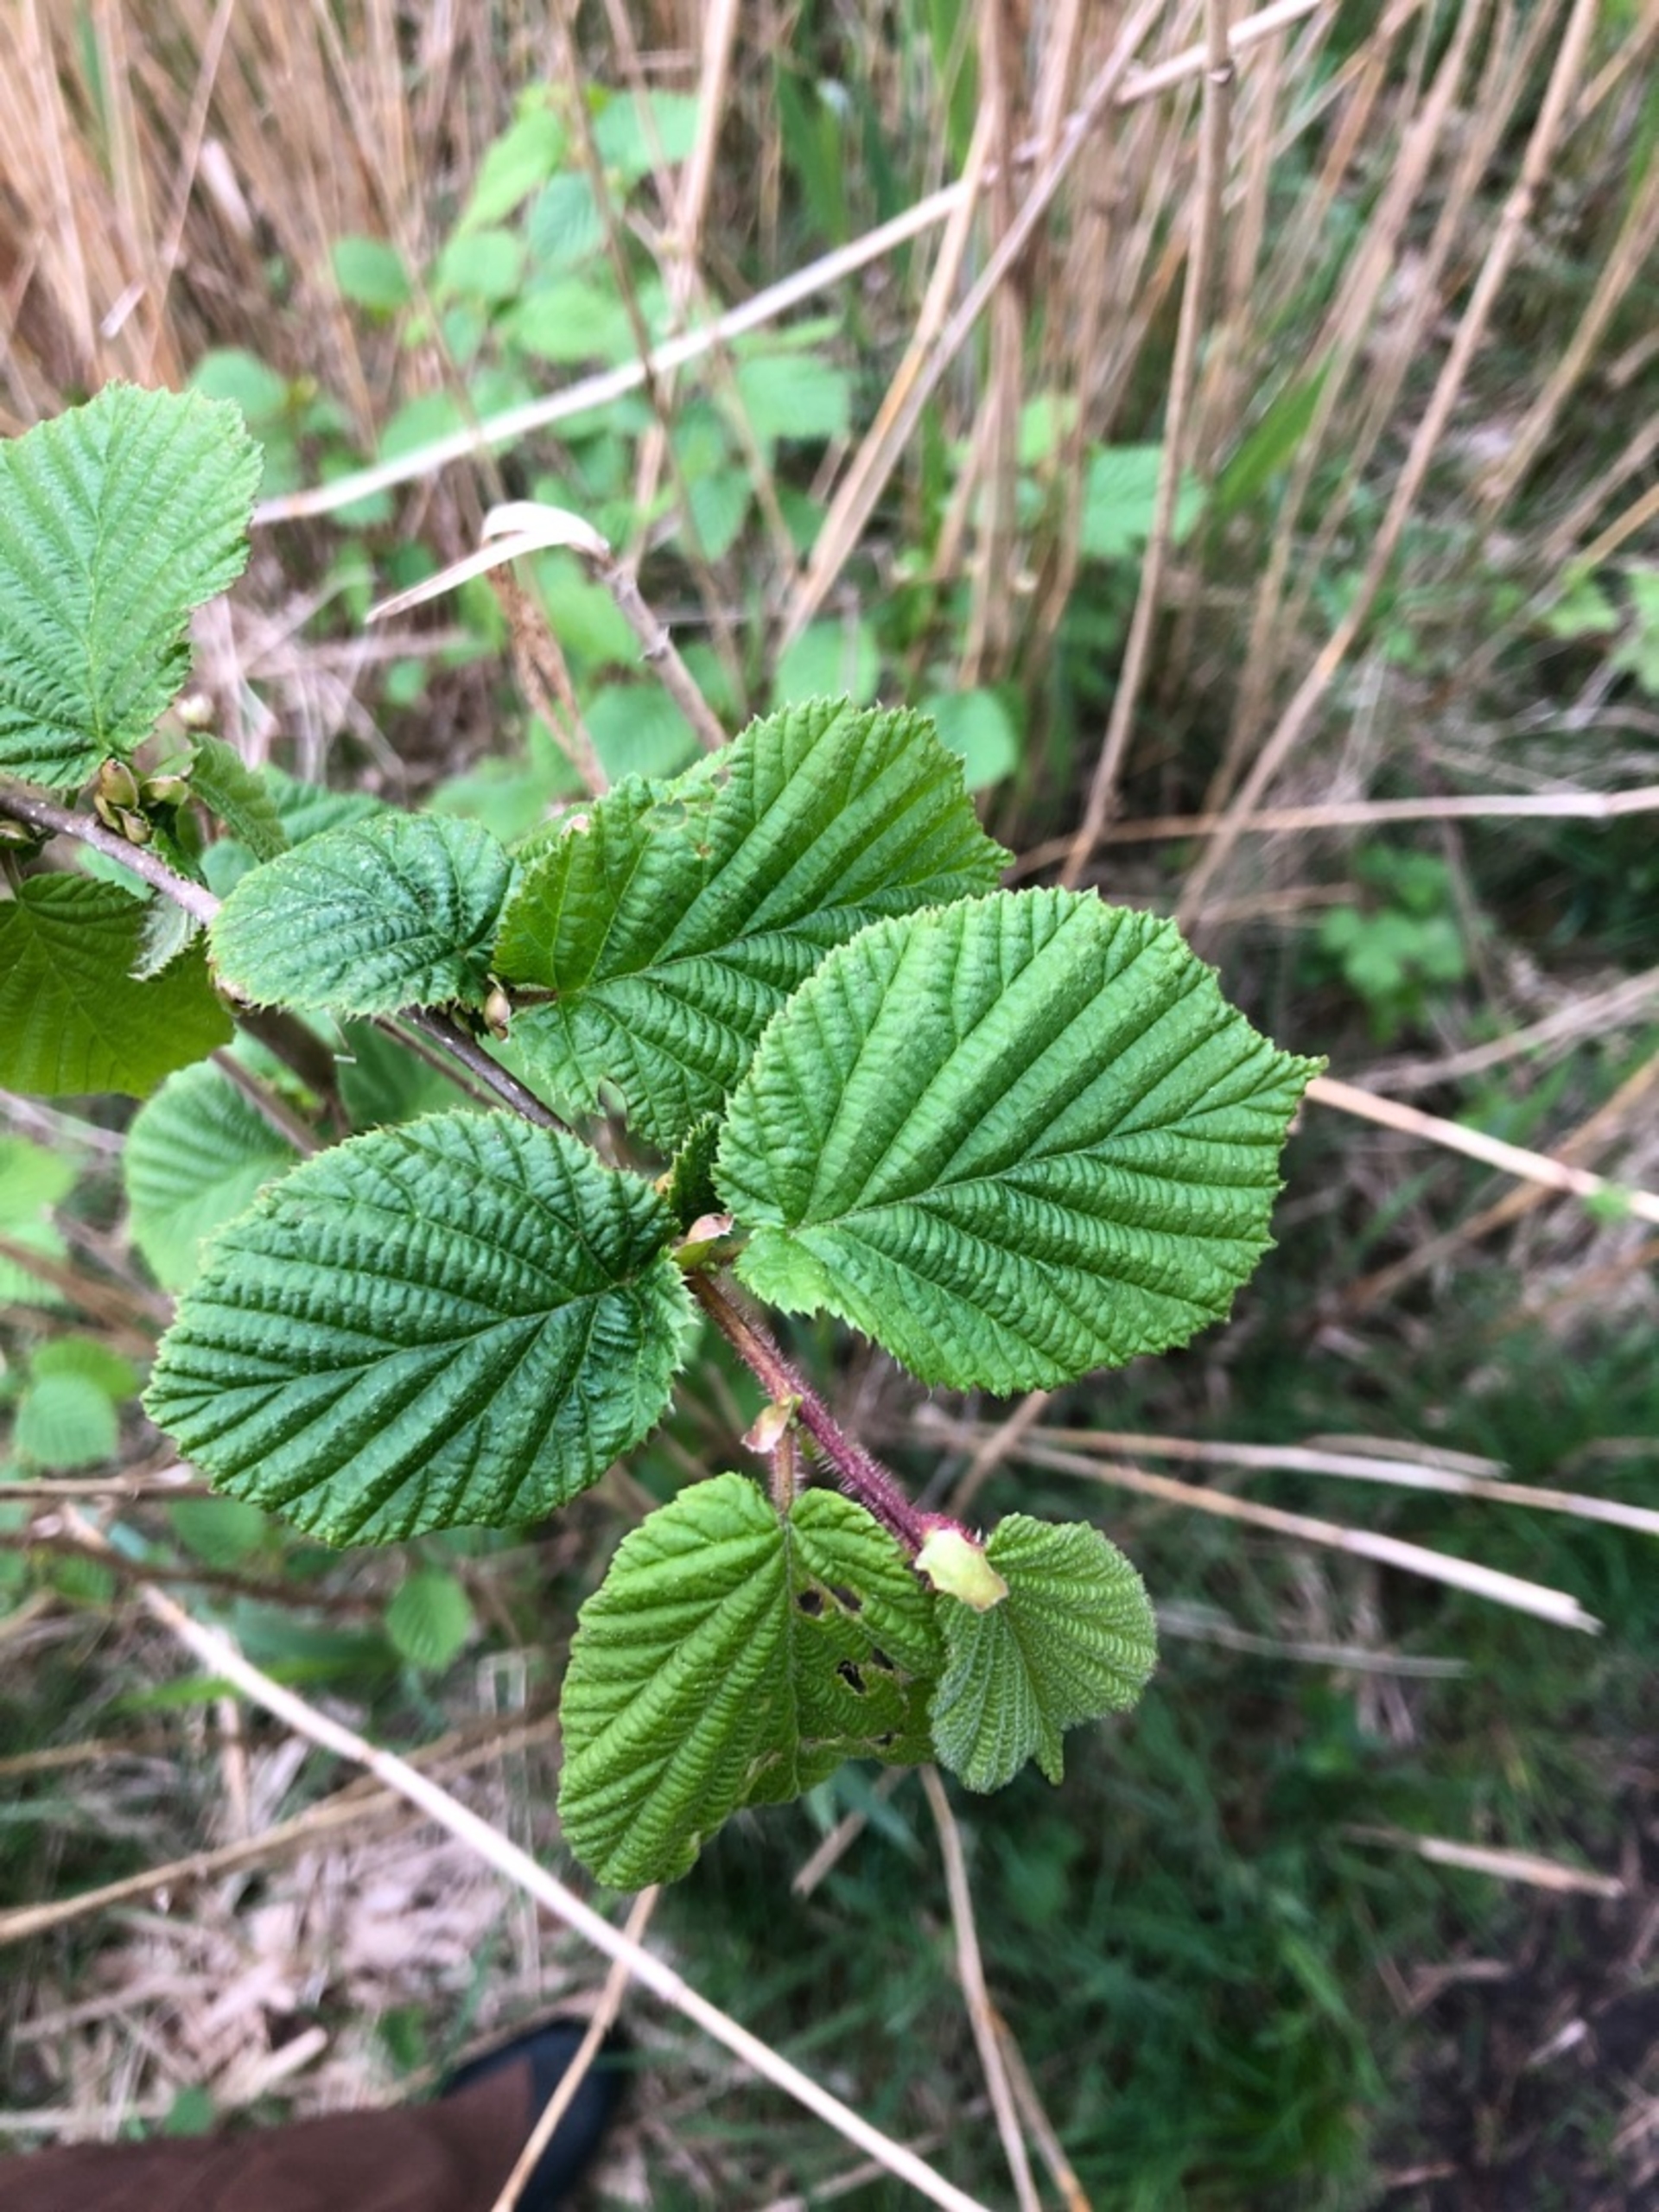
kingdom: Plantae
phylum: Tracheophyta
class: Magnoliopsida
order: Fagales
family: Betulaceae
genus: Corylus
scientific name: Corylus avellana
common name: Hassel
